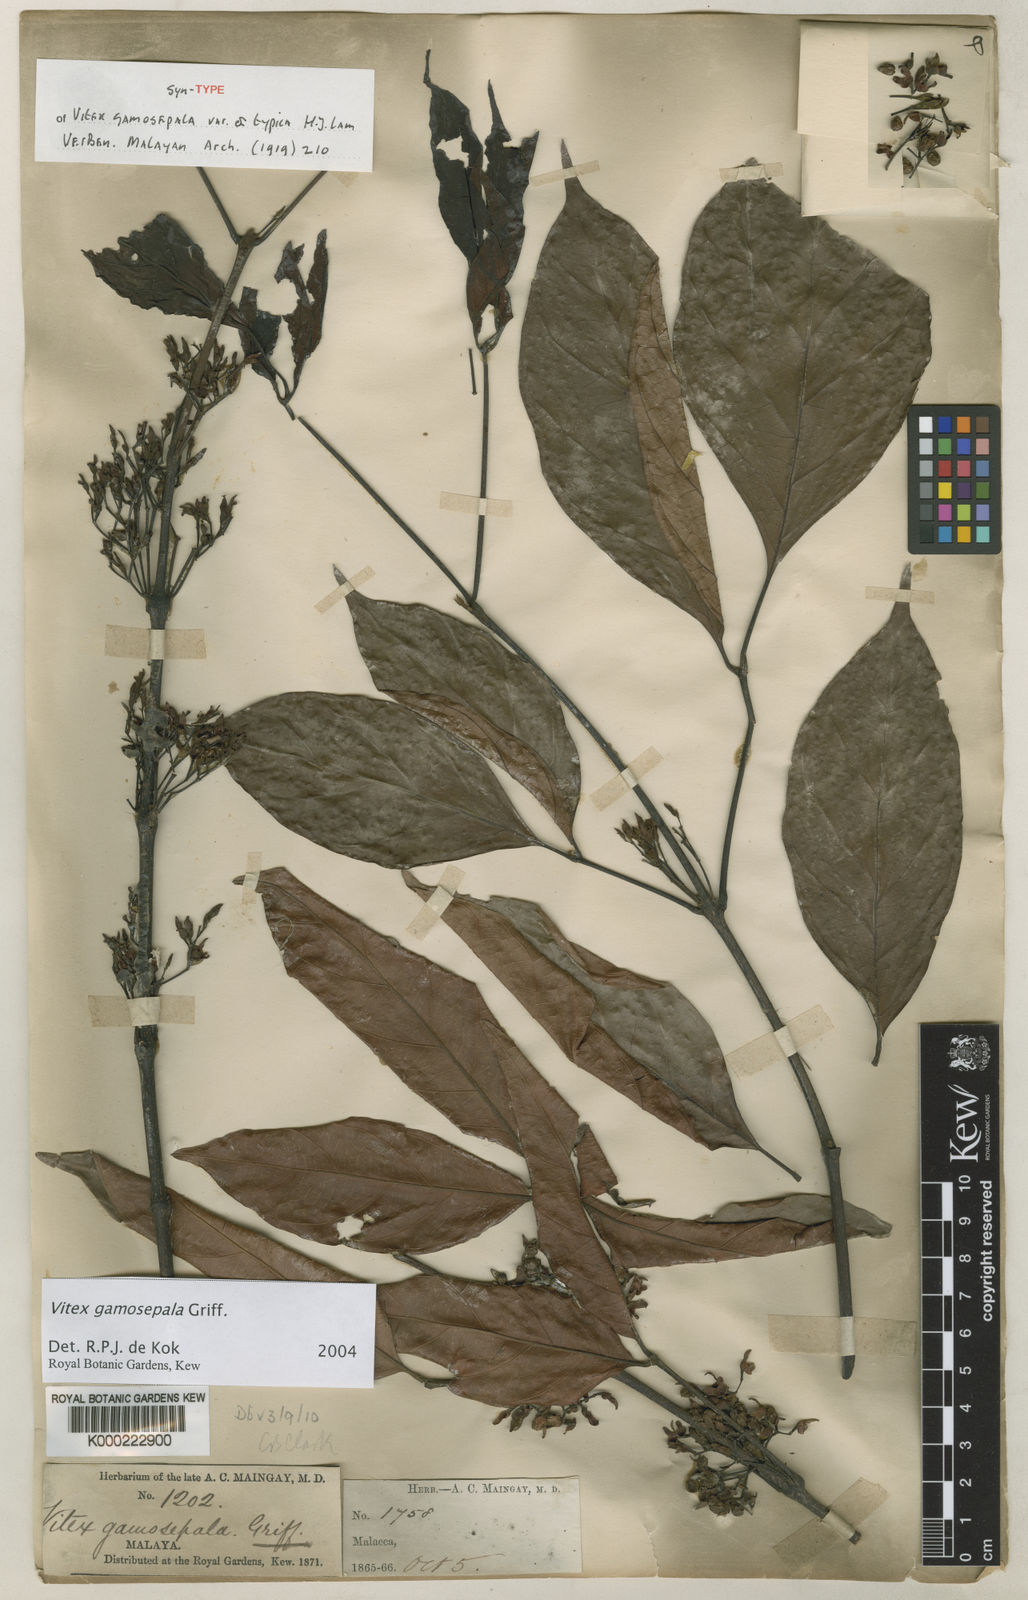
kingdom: Plantae
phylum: Tracheophyta
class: Magnoliopsida
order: Lamiales
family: Lamiaceae
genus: Vitex
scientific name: Vitex gamosepala
